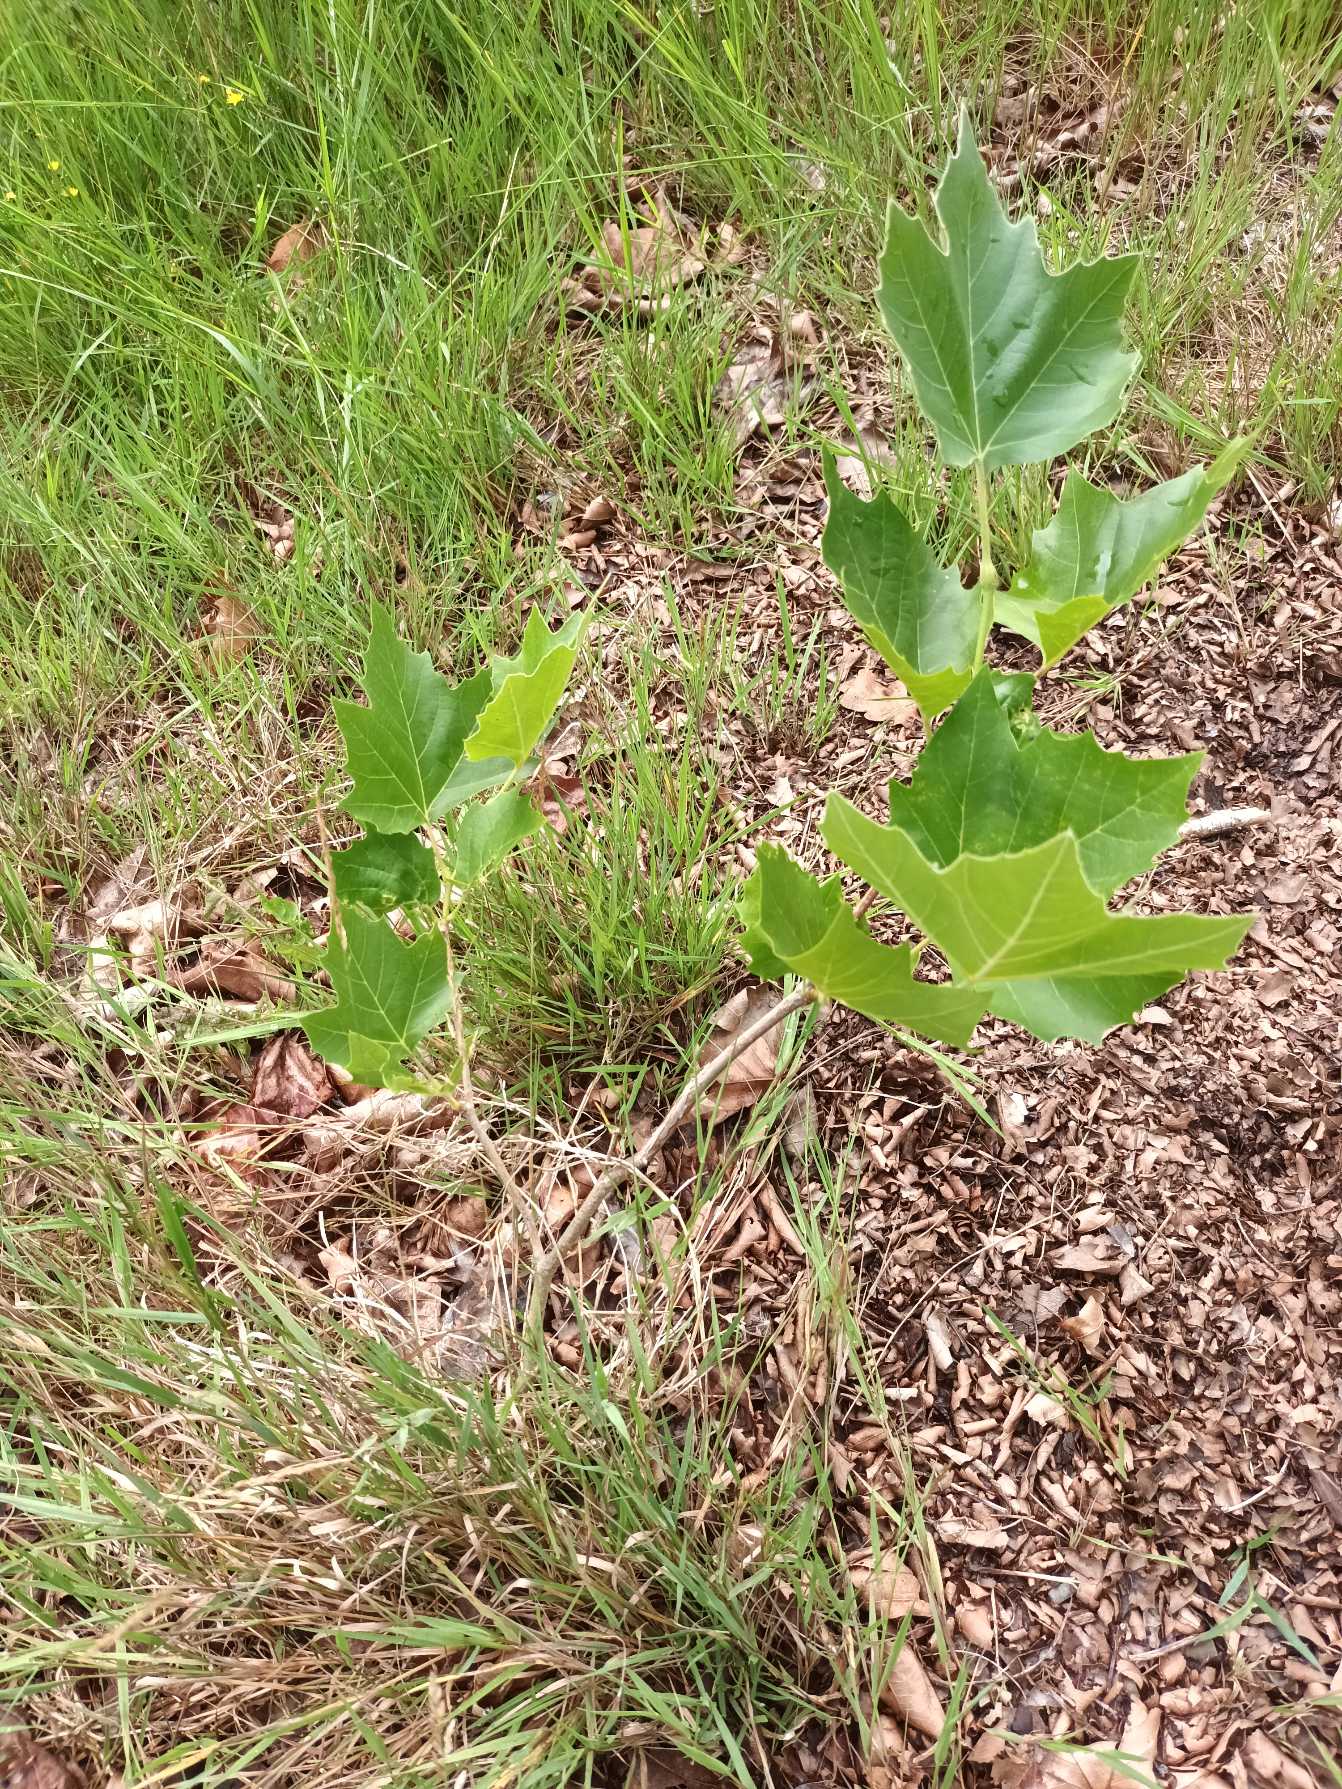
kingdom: Plantae
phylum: Tracheophyta
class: Magnoliopsida
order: Proteales
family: Platanaceae
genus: Platanus
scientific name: Platanus hispanica
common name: Almindelig platan
